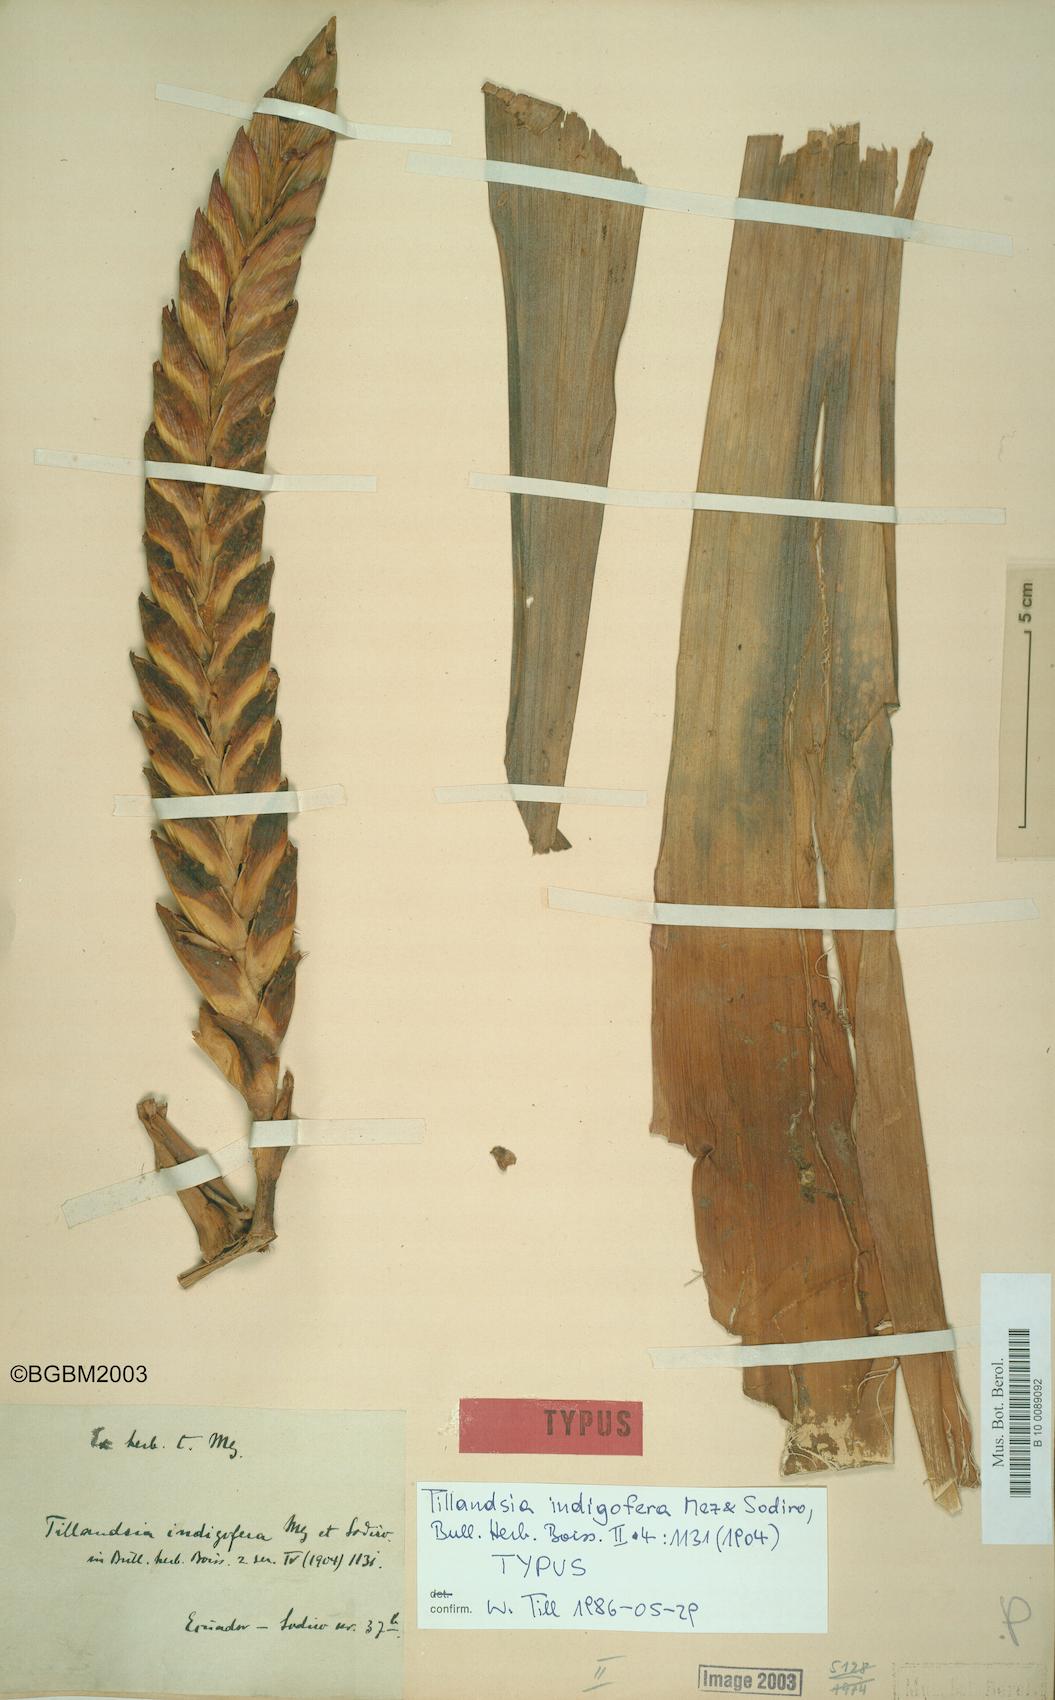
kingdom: Plantae
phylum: Tracheophyta
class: Liliopsida
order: Poales
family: Bromeliaceae
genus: Tillandsia
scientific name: Tillandsia indigofera
